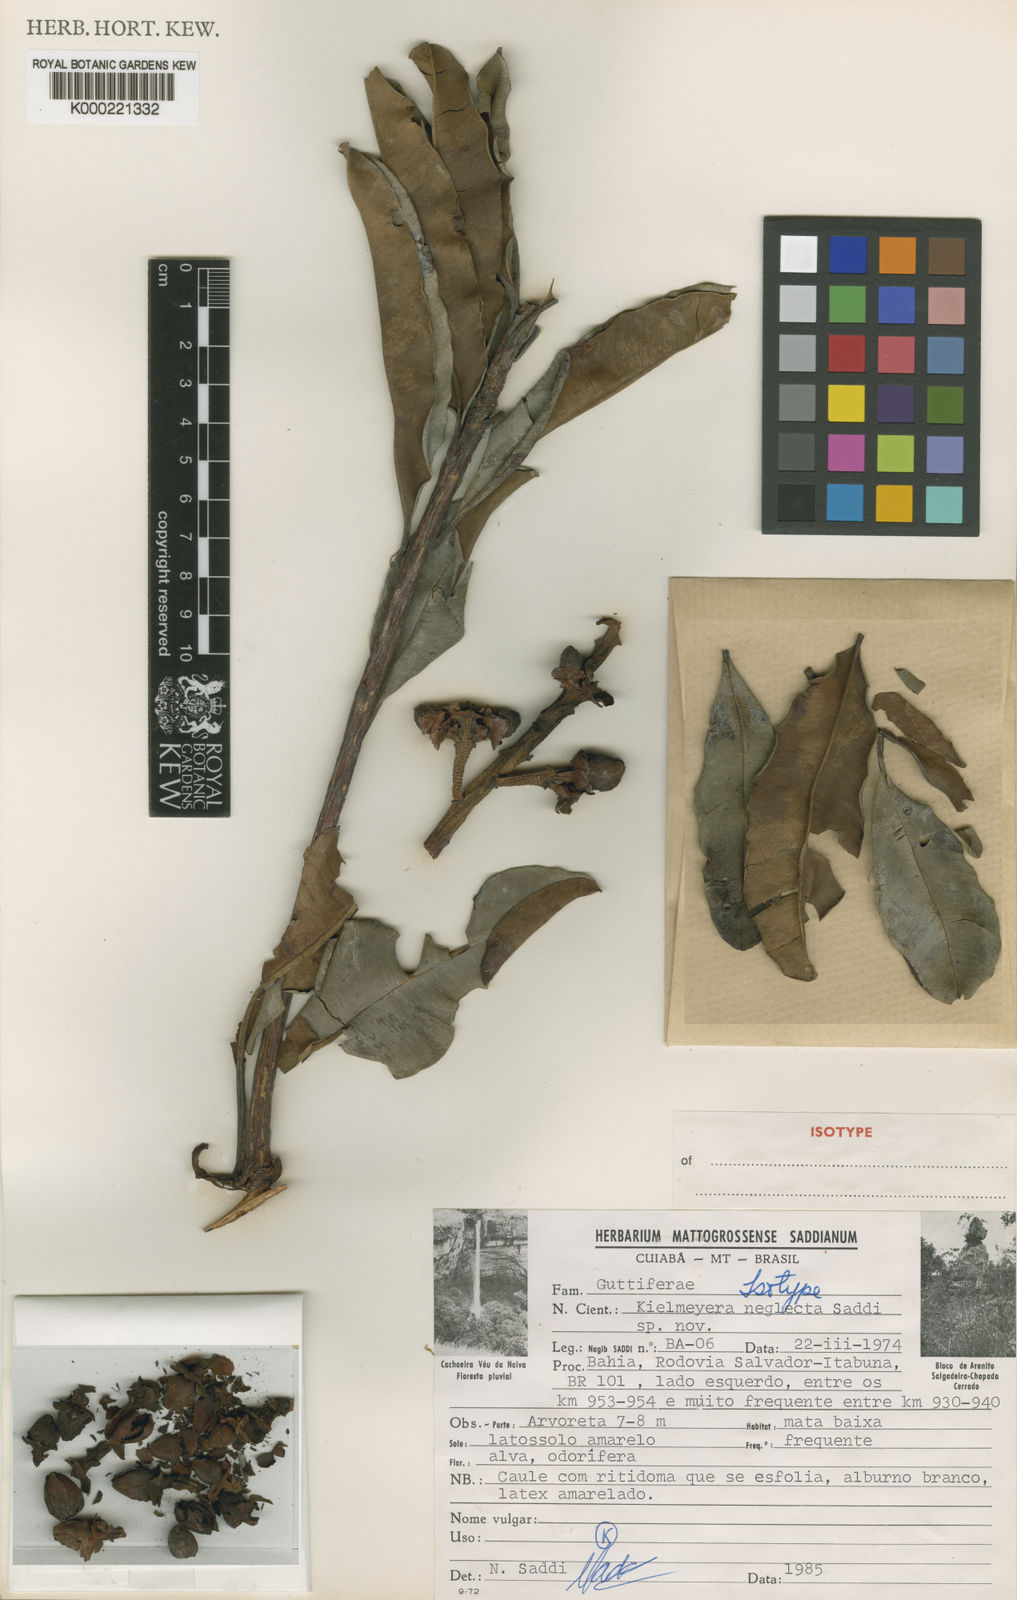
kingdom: Plantae
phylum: Tracheophyta
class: Magnoliopsida
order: Malpighiales
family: Calophyllaceae
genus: Kielmeyera
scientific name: Kielmeyera neglecta
